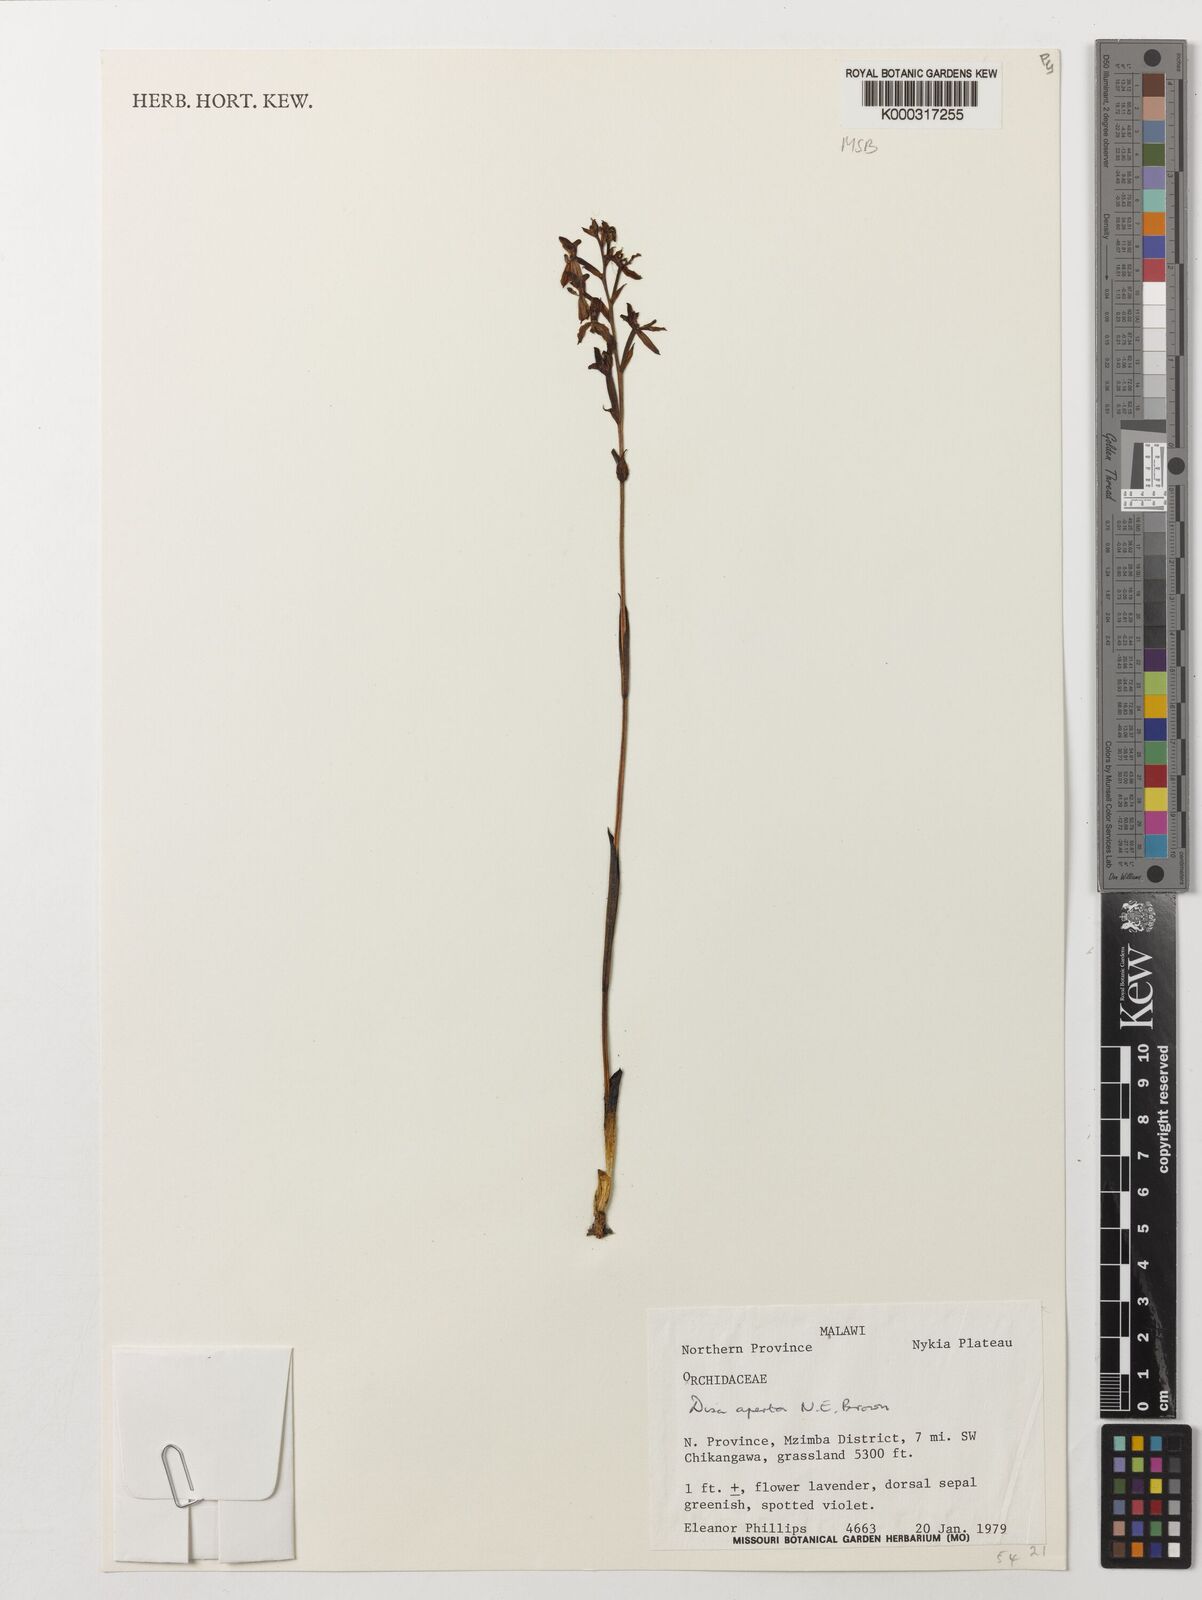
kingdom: Plantae
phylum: Tracheophyta
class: Liliopsida
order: Asparagales
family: Orchidaceae
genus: Disa
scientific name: Disa aperta
